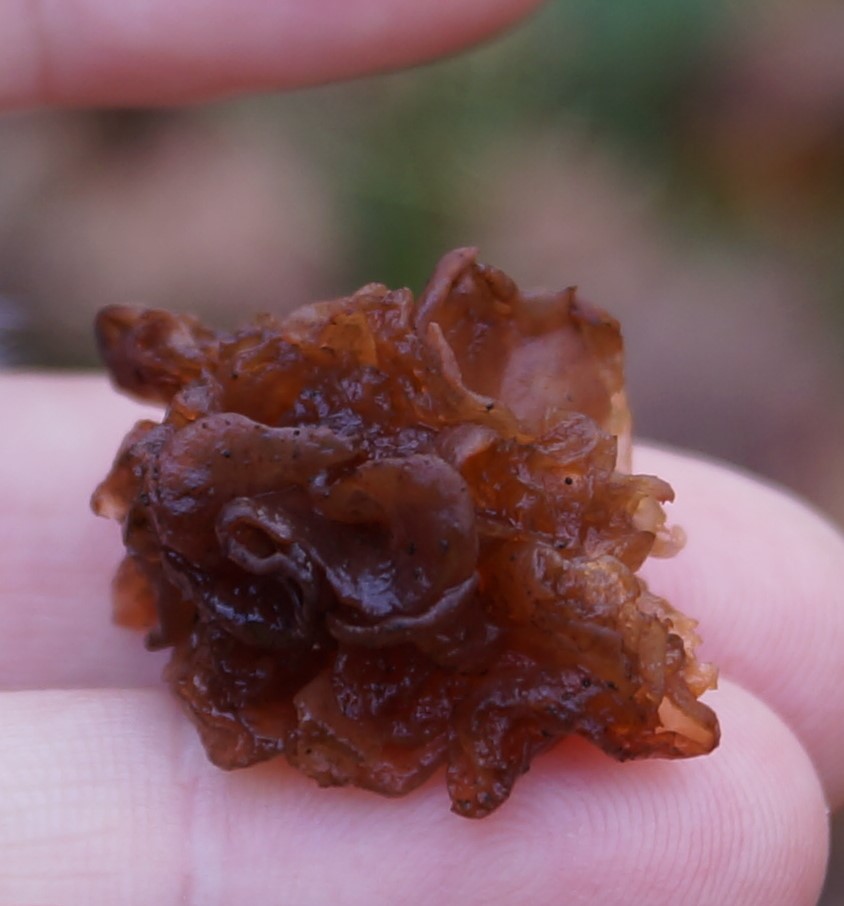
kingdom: Fungi
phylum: Basidiomycota
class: Tremellomycetes
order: Tremellales
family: Tremellaceae
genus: Phaeotremella
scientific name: Phaeotremella frondosa
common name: kæmpe-bævresvamp
